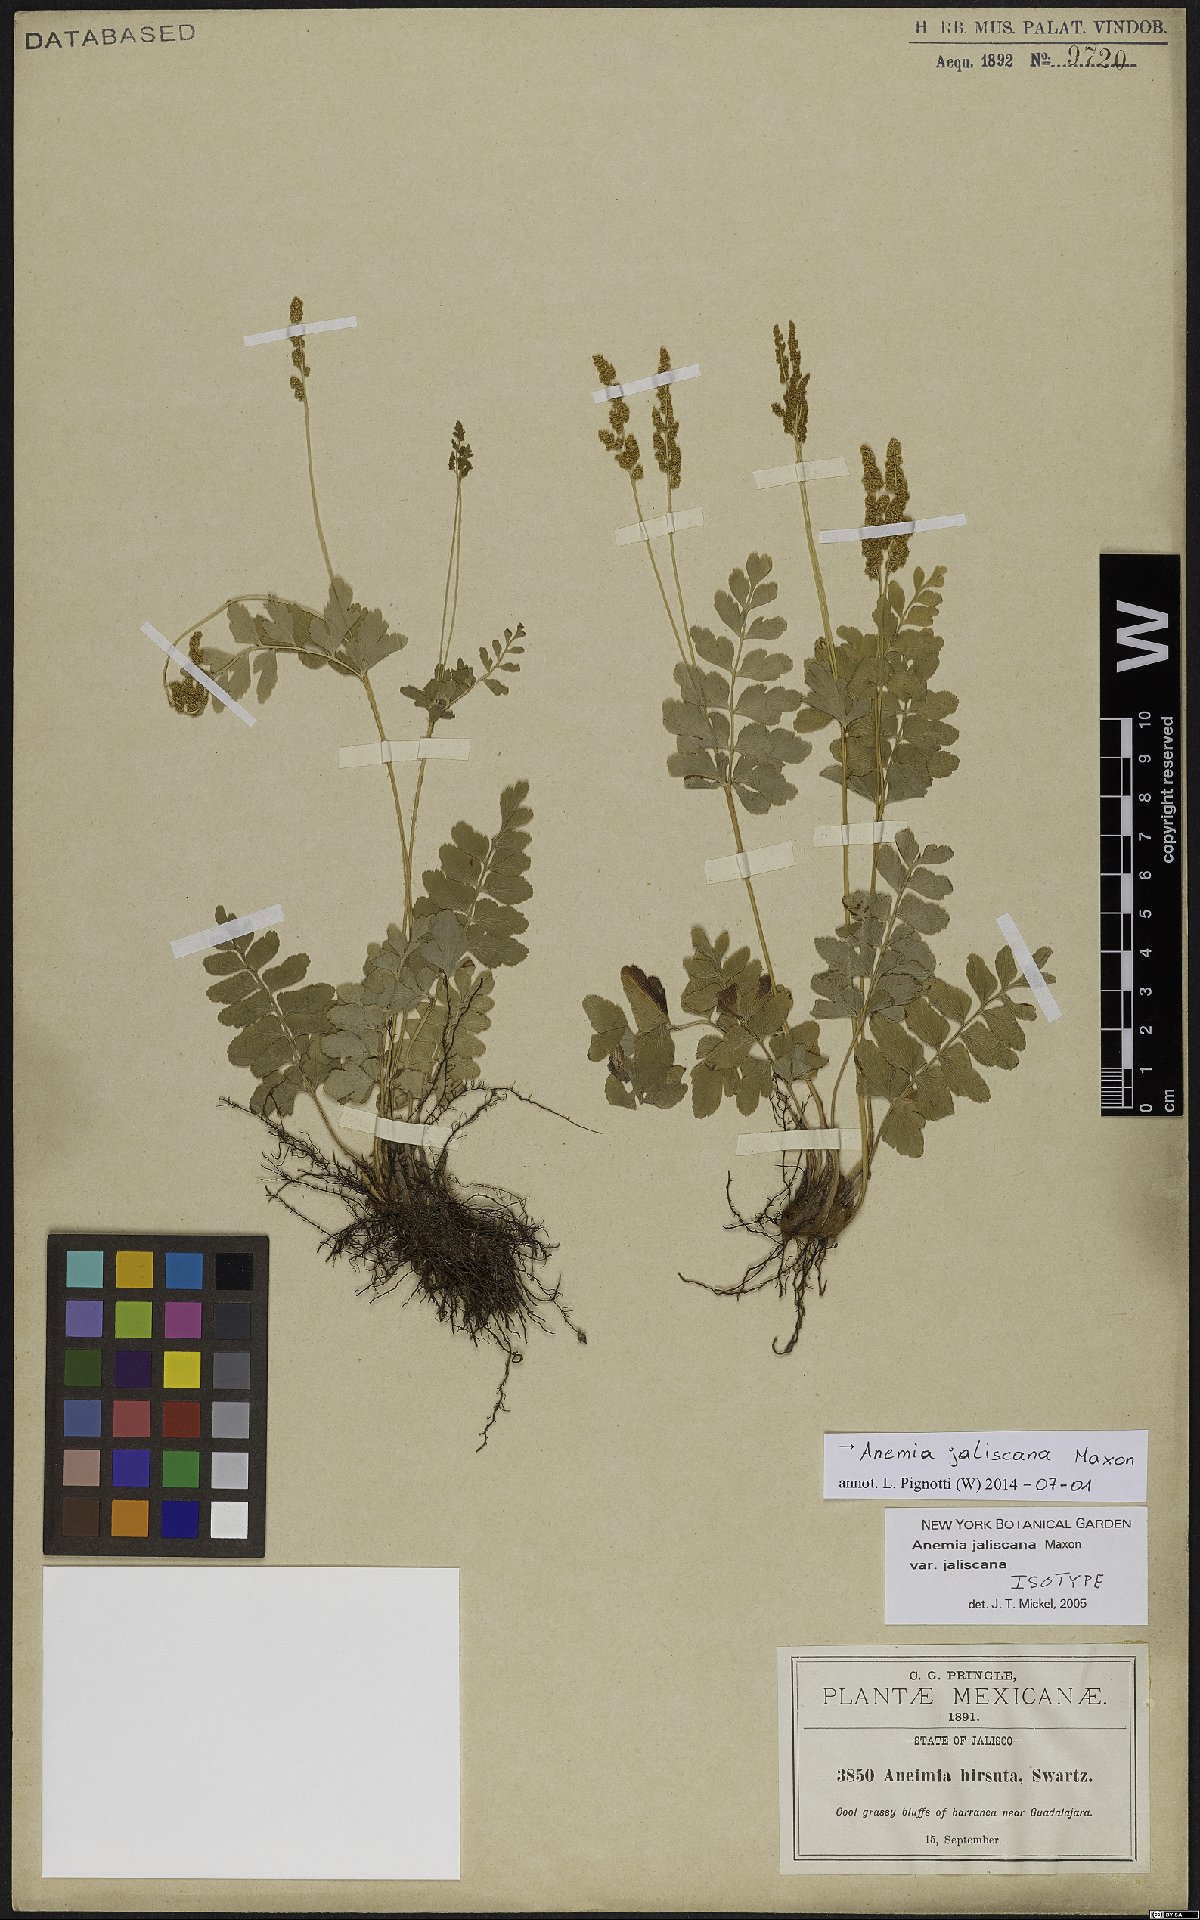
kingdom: Plantae
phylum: Tracheophyta
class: Polypodiopsida
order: Schizaeales
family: Anemiaceae
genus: Anemia
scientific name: Anemia jaliscana
